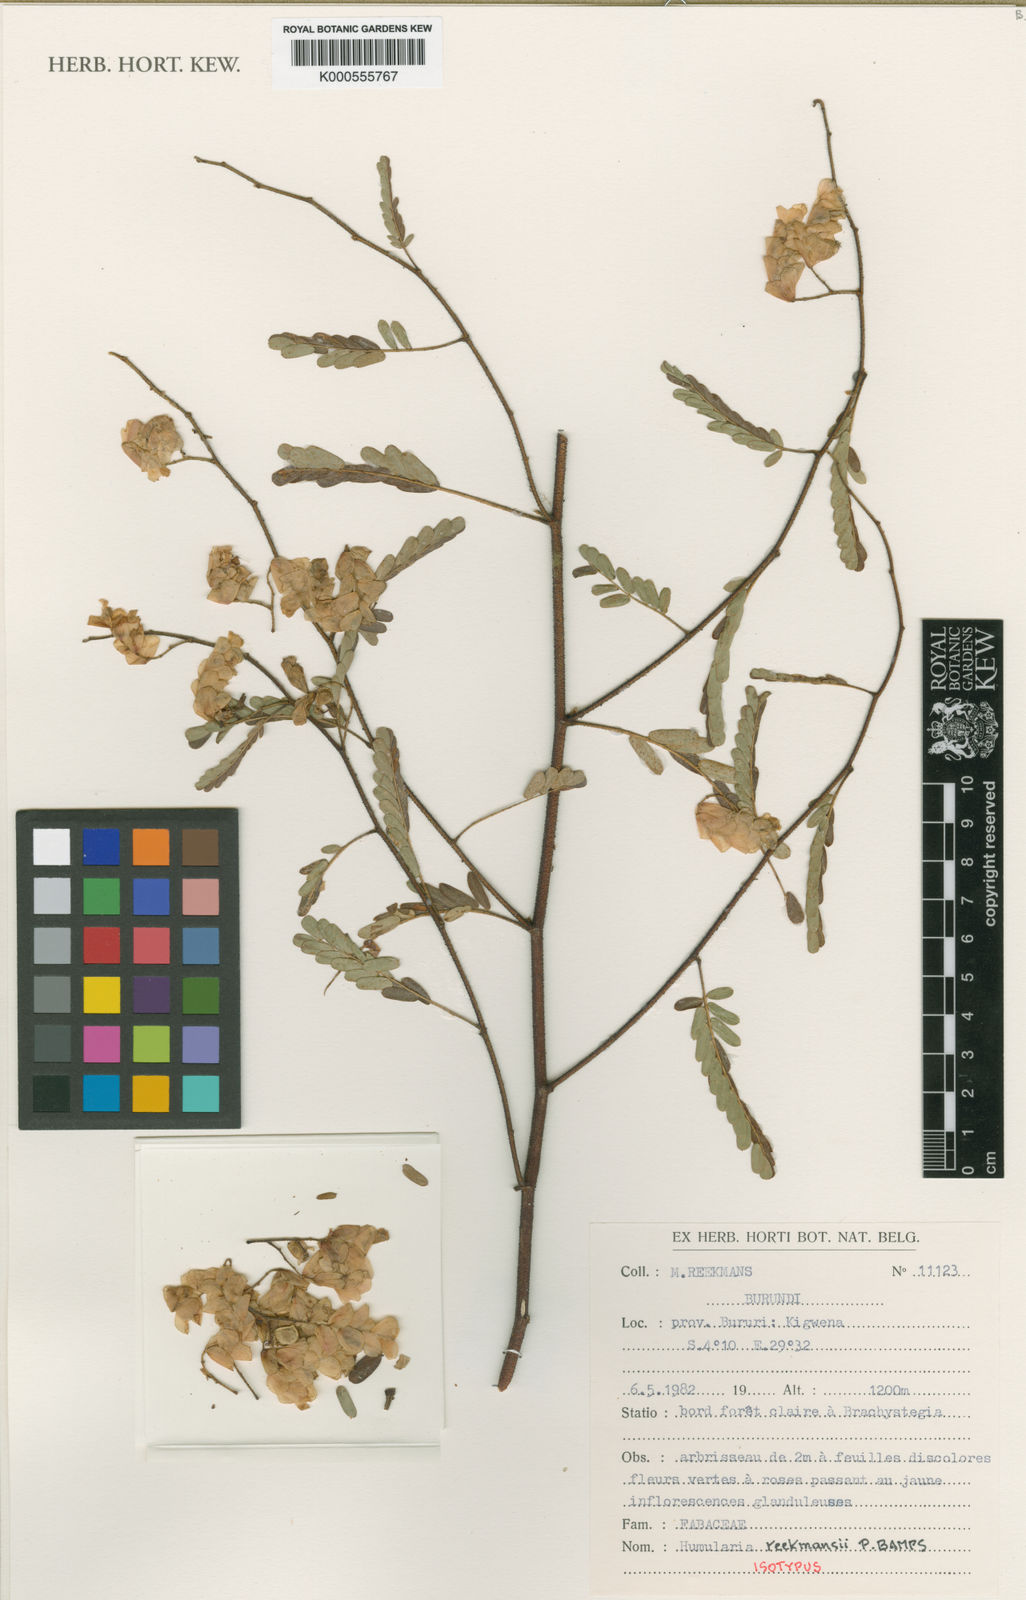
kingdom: Plantae
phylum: Tracheophyta
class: Magnoliopsida
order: Fabales
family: Fabaceae
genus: Humularia
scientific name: Humularia reekmansii
